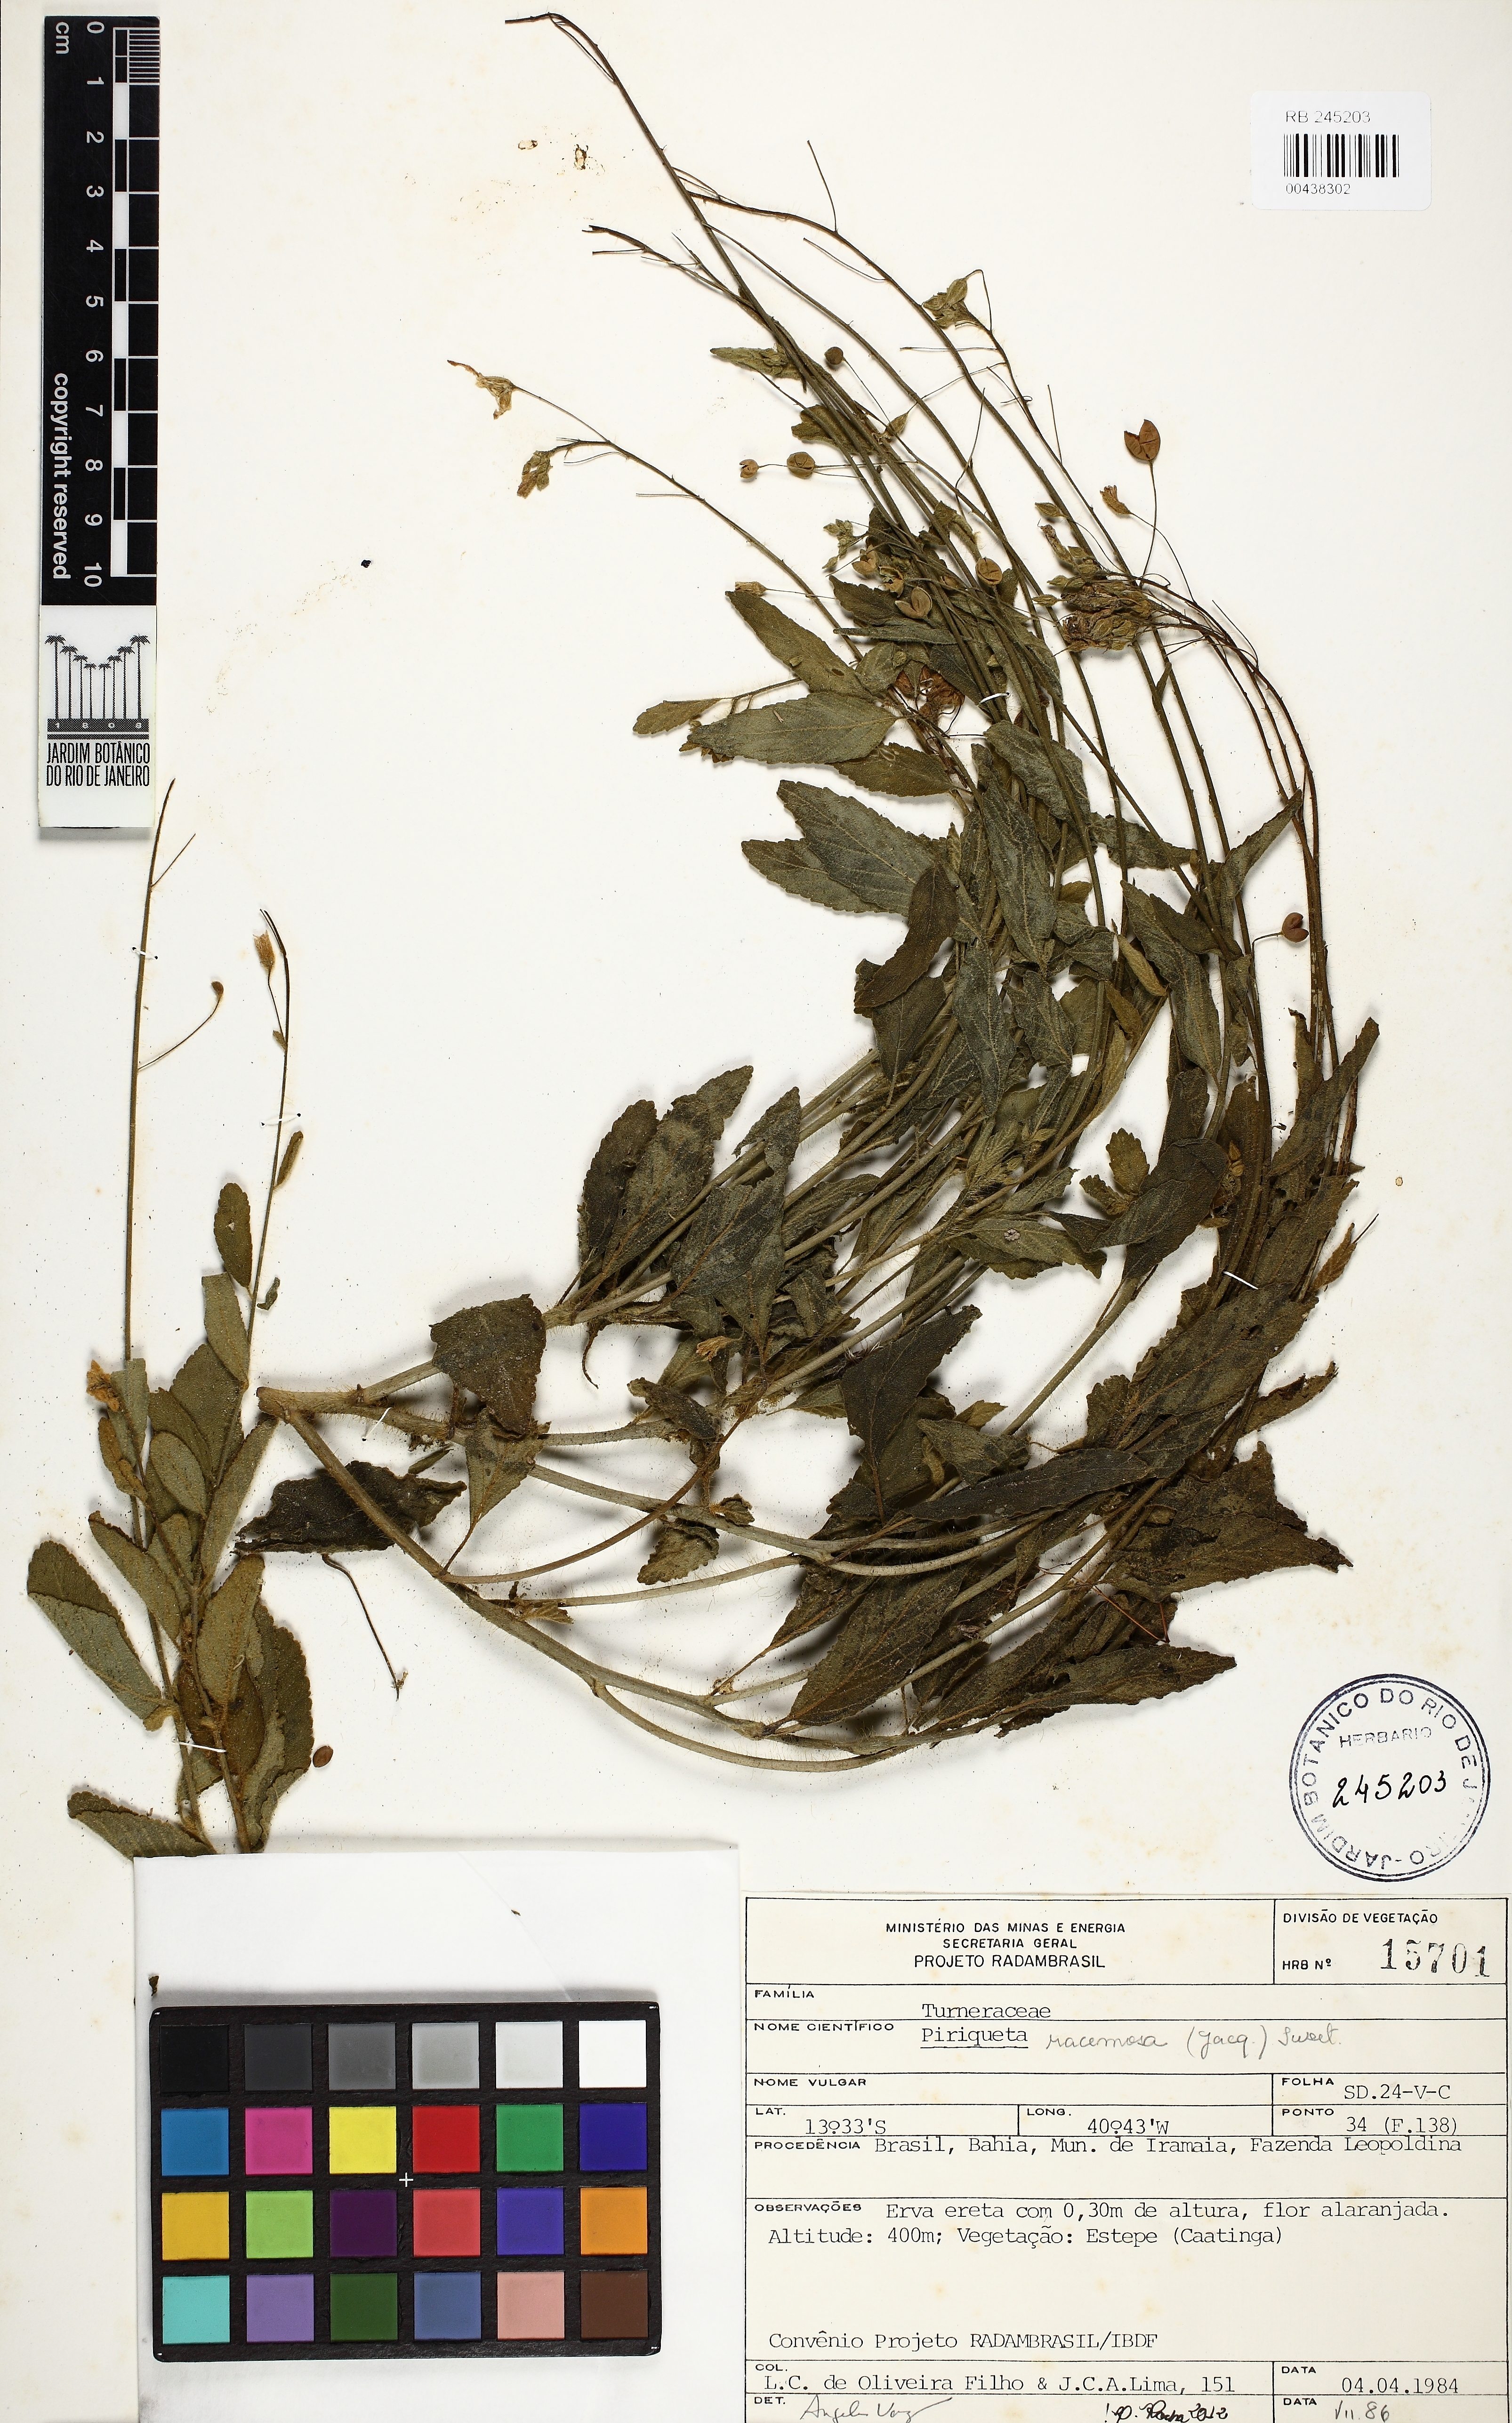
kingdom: Plantae
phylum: Tracheophyta
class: Magnoliopsida
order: Malpighiales
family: Turneraceae
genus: Piriqueta
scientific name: Piriqueta racemosa
